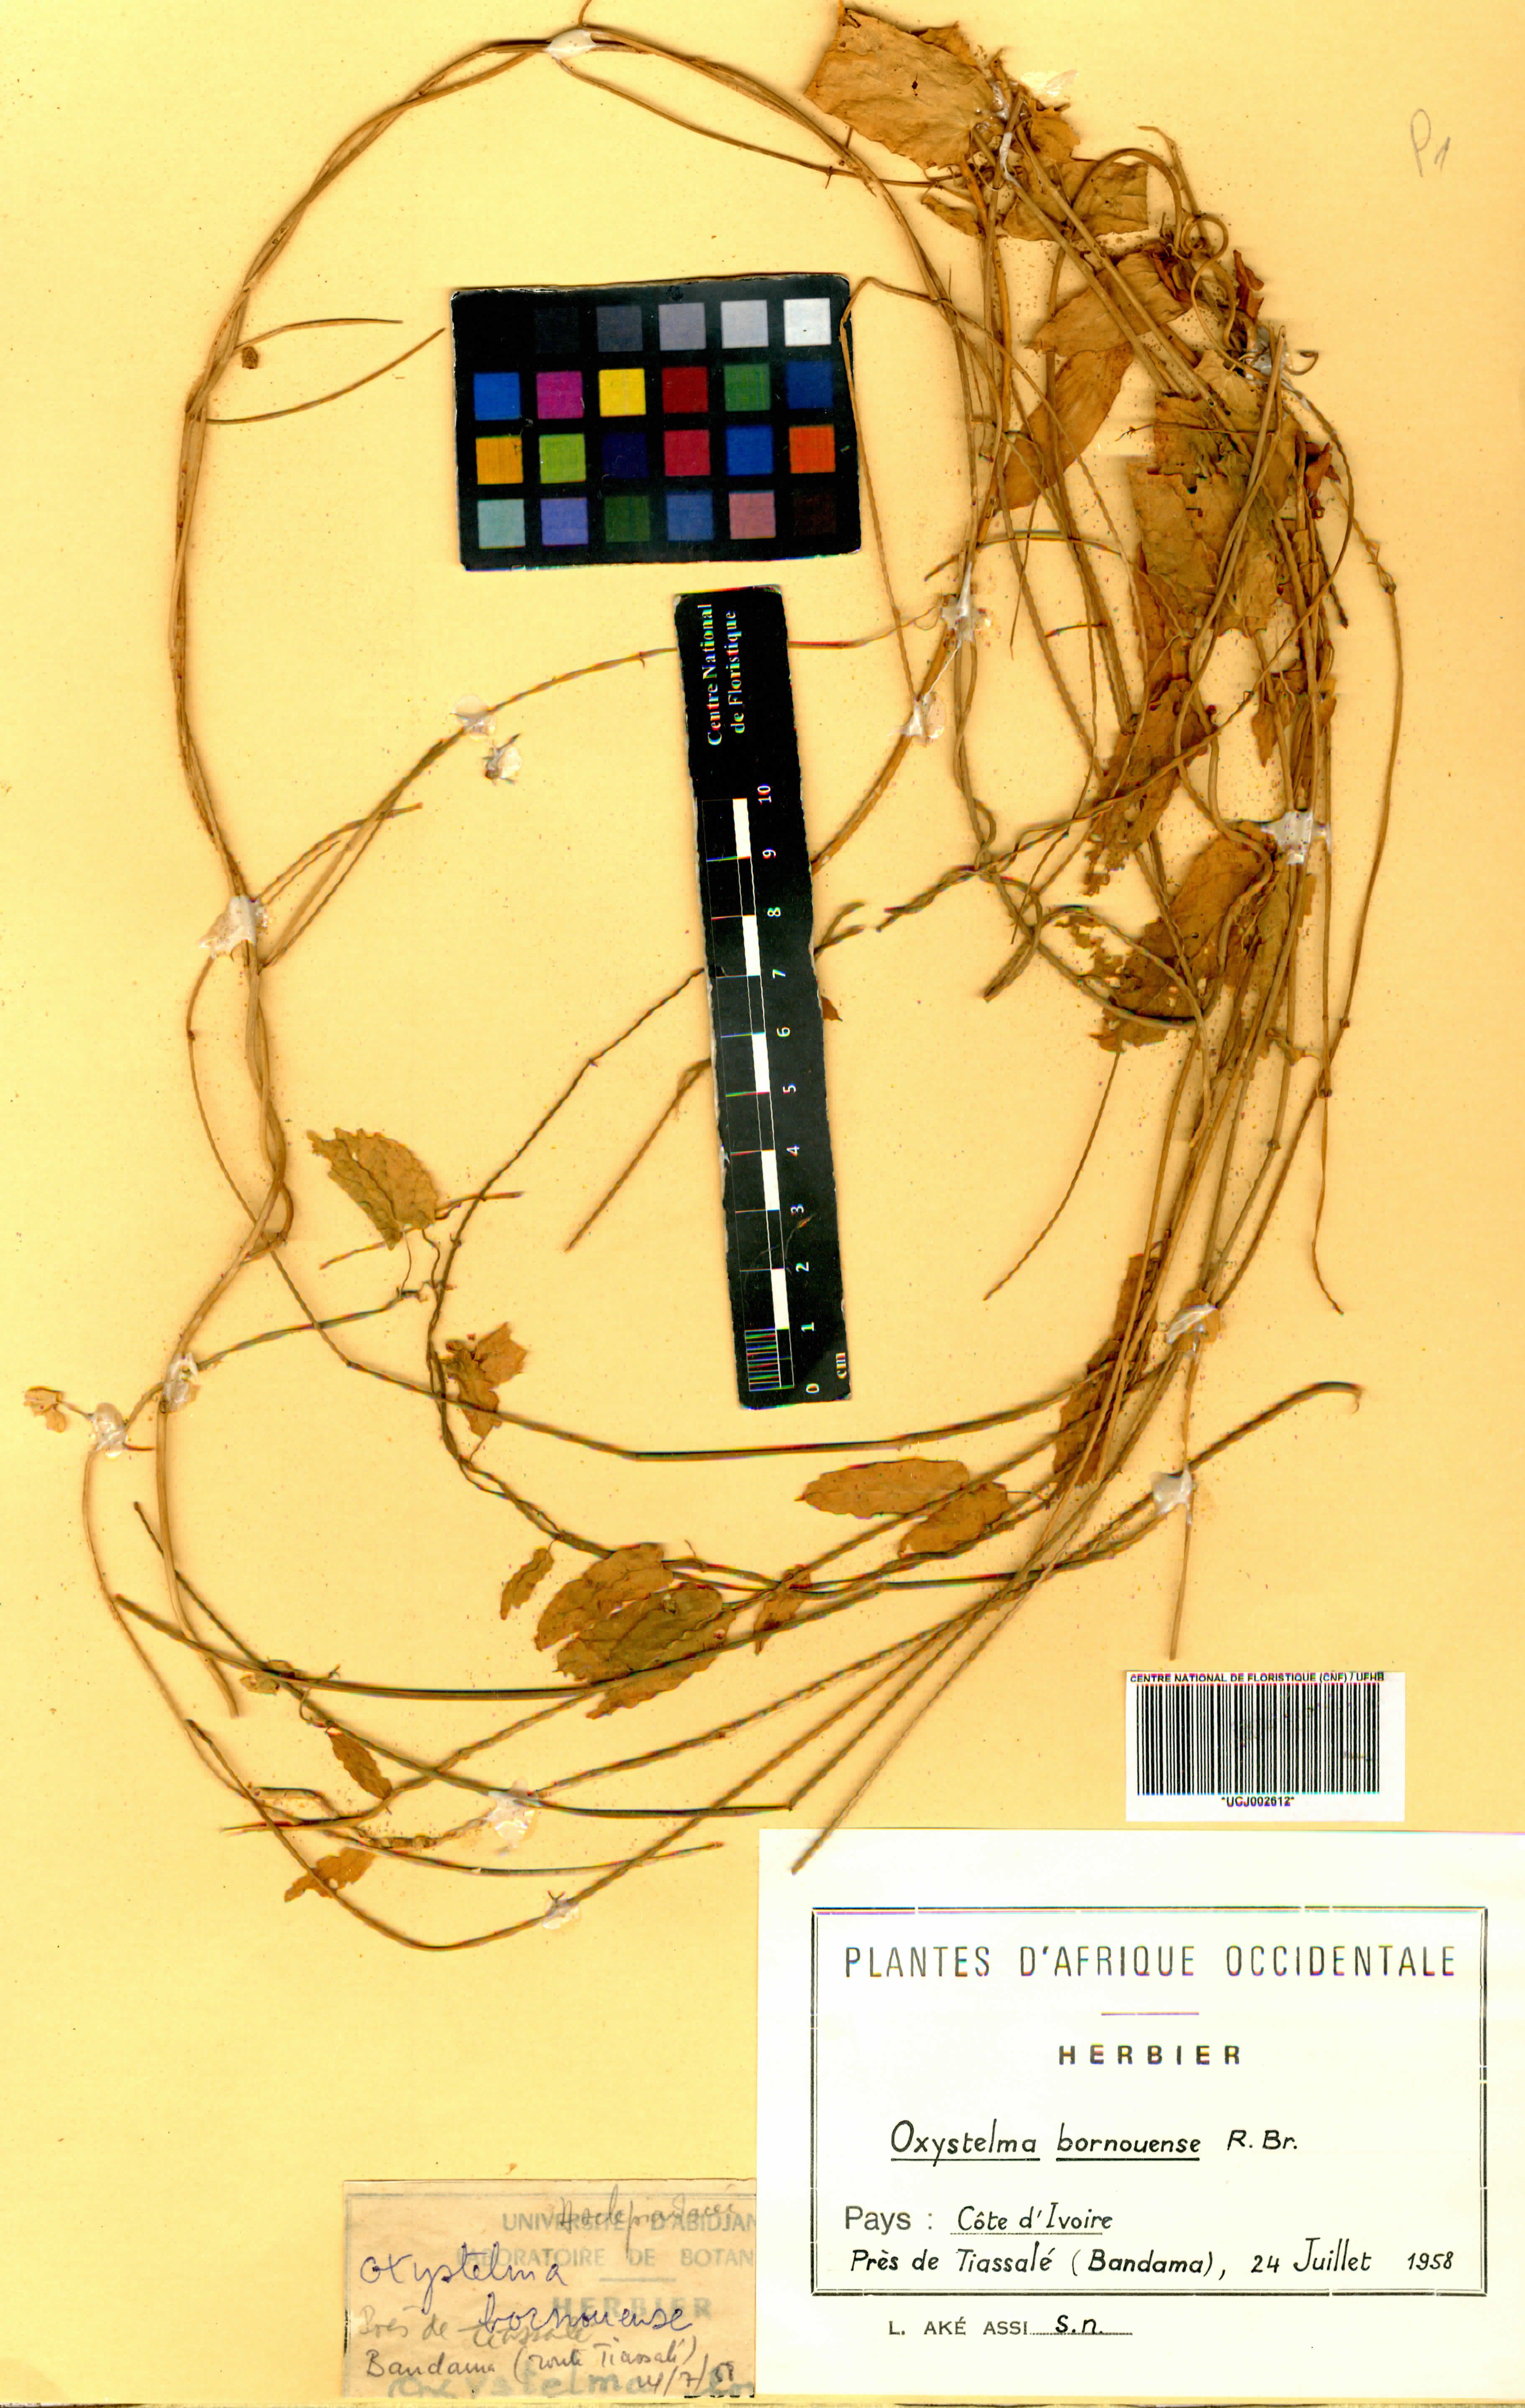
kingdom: Plantae
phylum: Tracheophyta
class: Magnoliopsida
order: Gentianales
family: Apocynaceae
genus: Oxystelma
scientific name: Oxystelma bornouense
